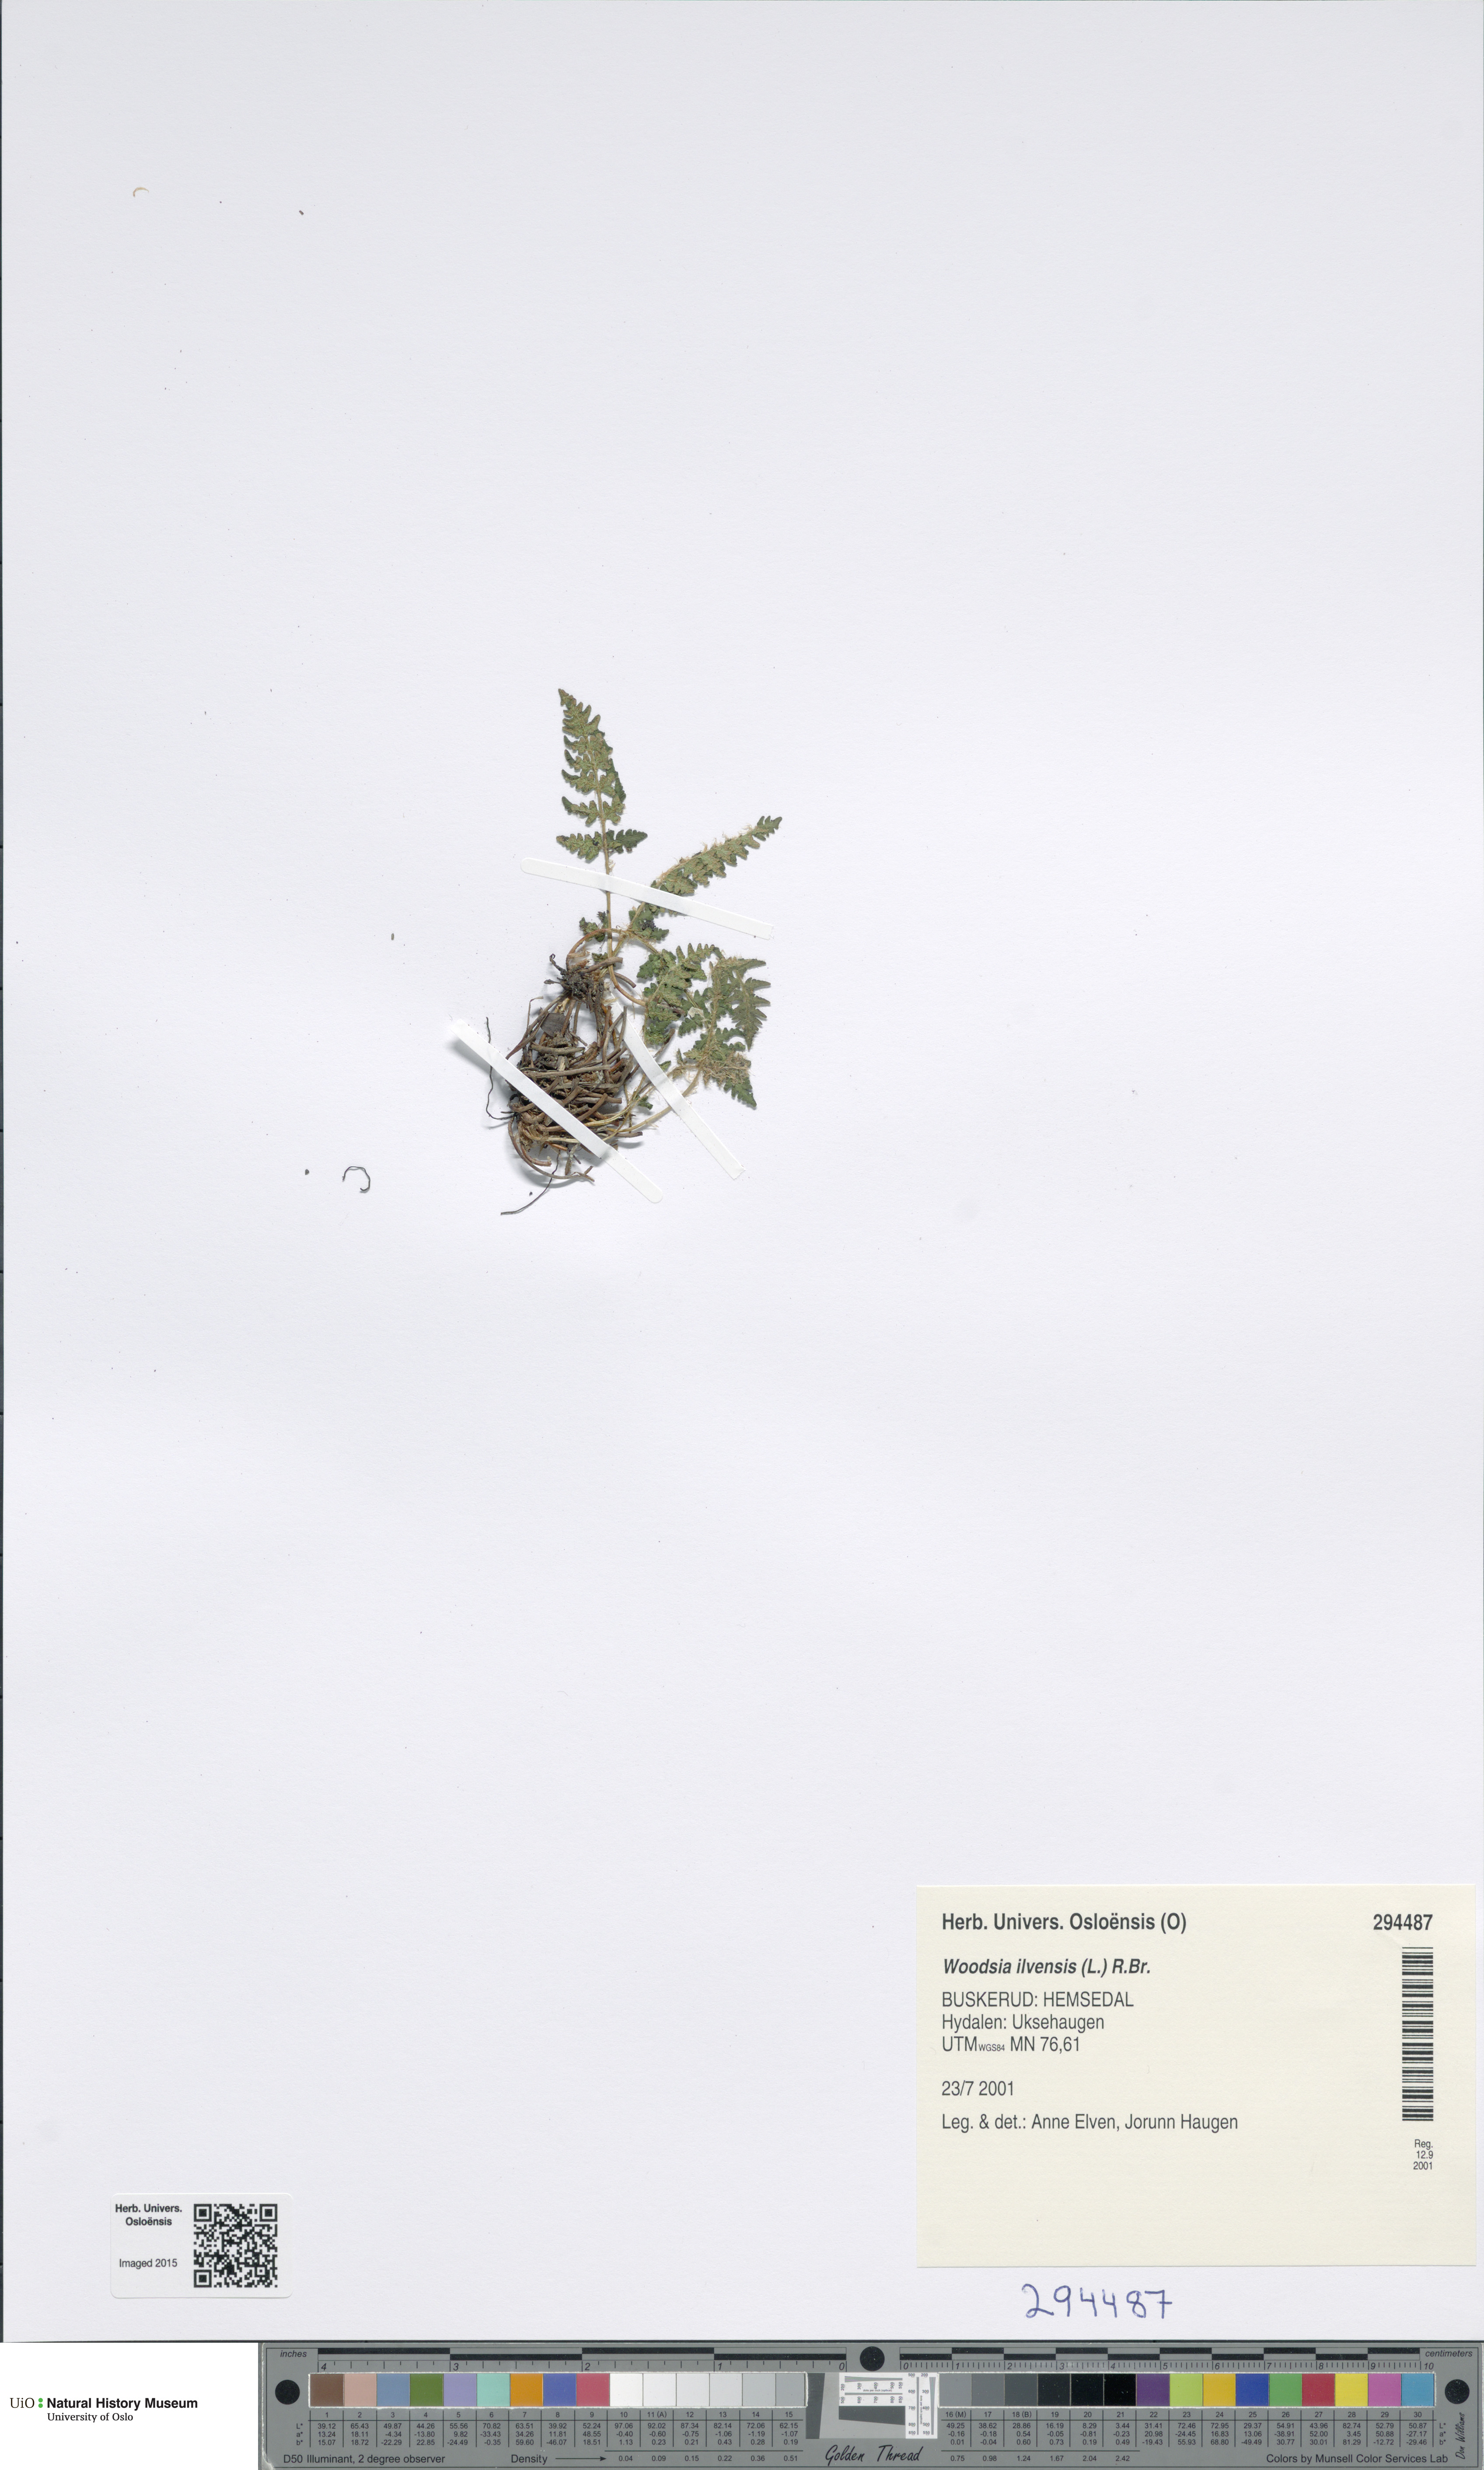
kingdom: Plantae
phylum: Tracheophyta
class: Polypodiopsida
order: Polypodiales
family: Woodsiaceae
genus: Woodsia
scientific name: Woodsia ilvensis
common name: Fragrant woodsia
